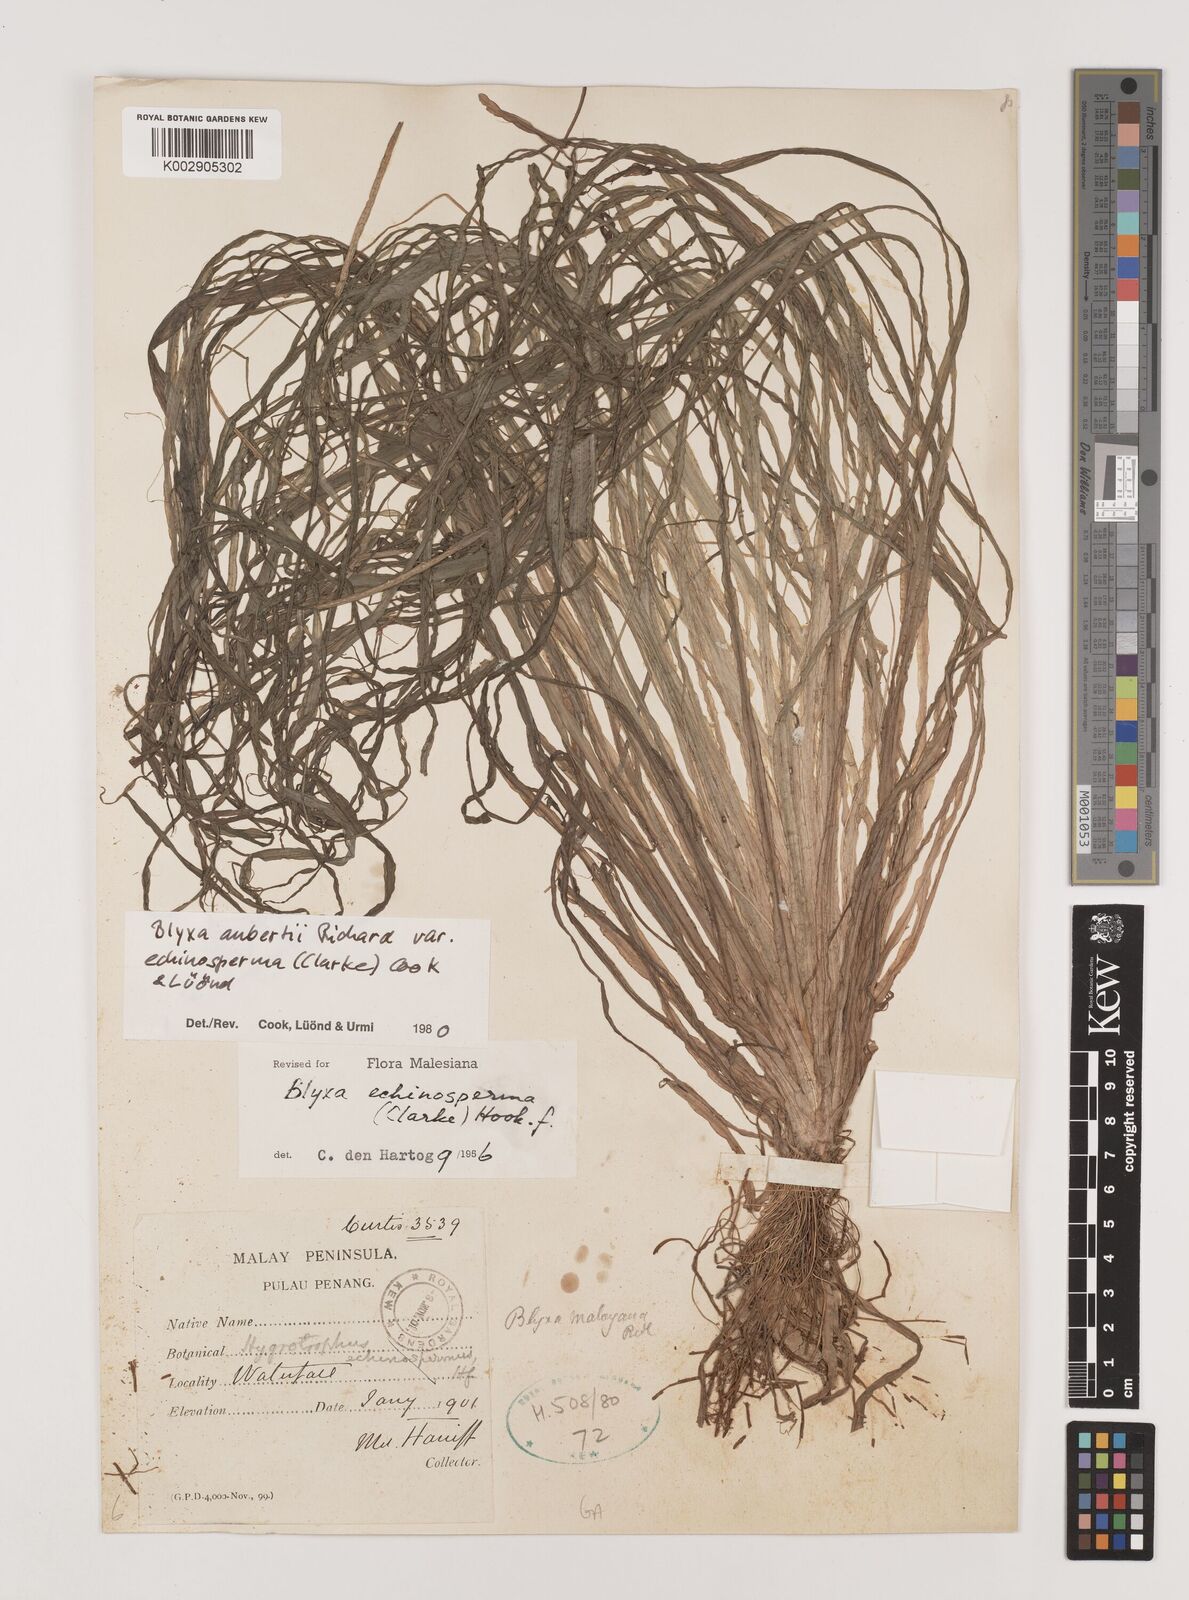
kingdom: Plantae
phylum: Tracheophyta
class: Liliopsida
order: Alismatales
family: Hydrocharitaceae
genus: Blyxa
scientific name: Blyxa echinosperma
